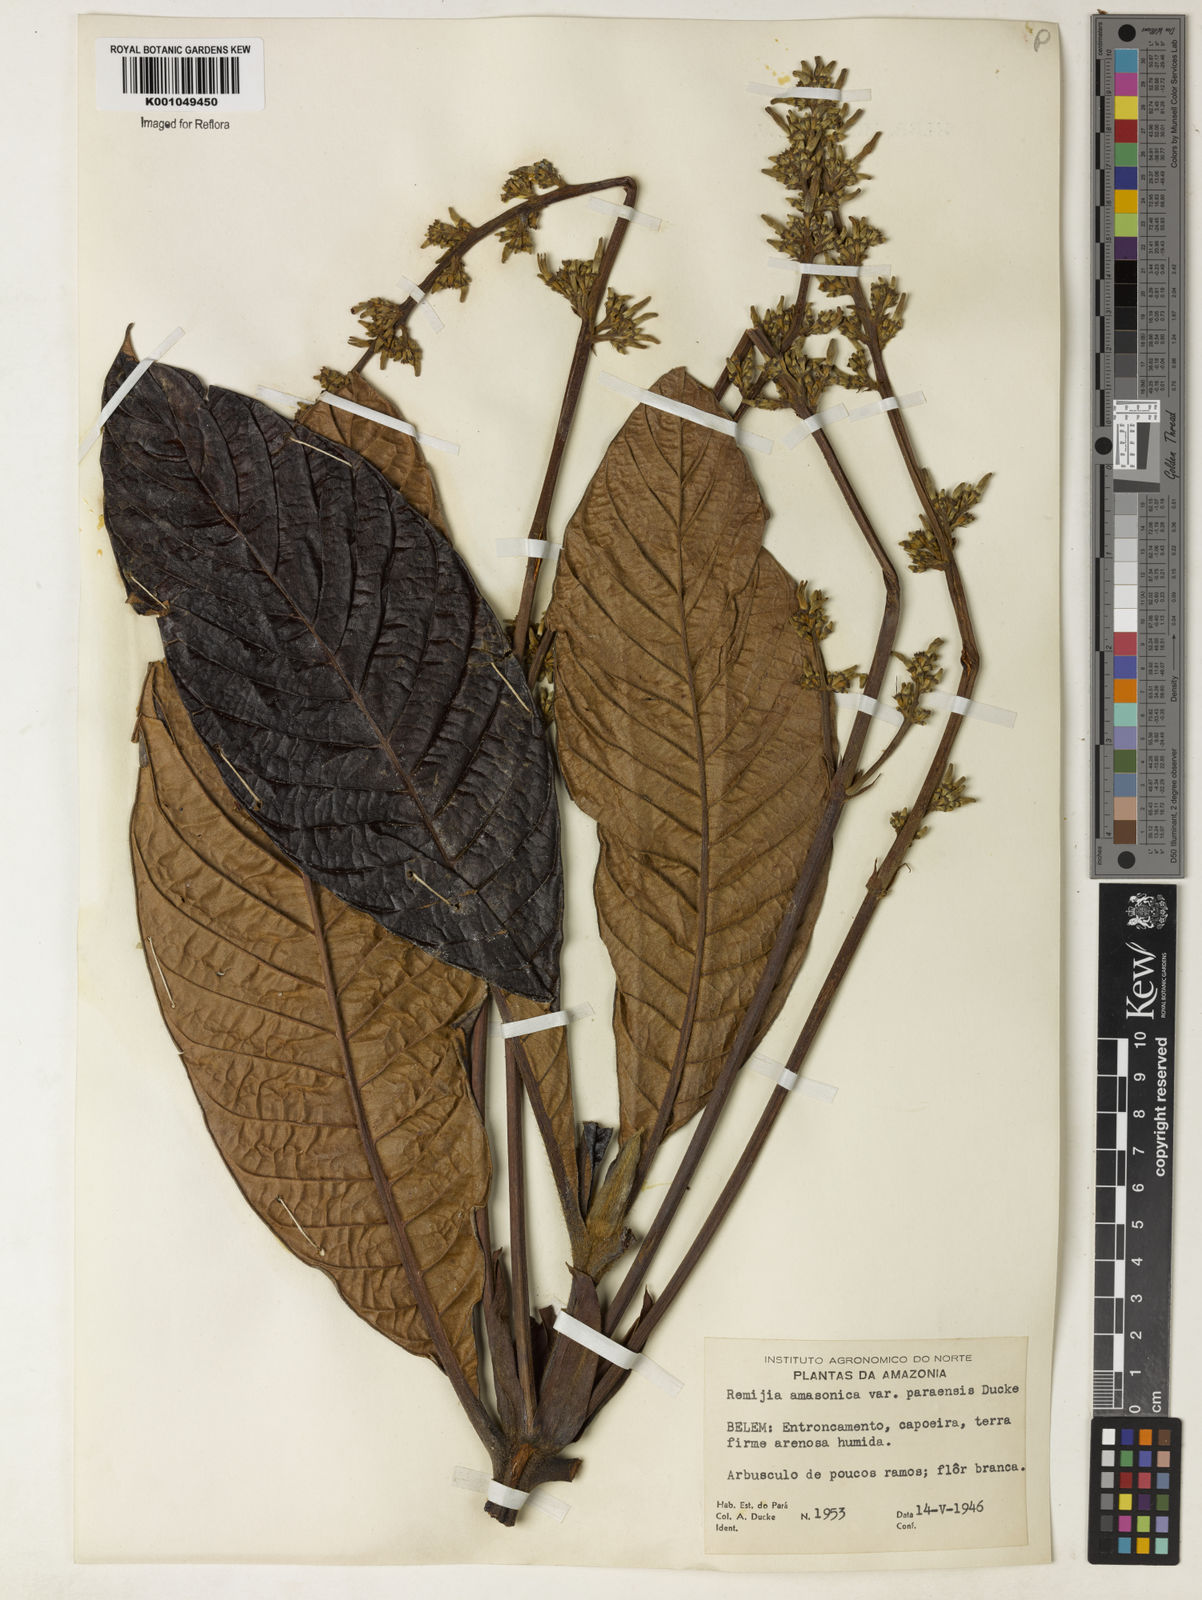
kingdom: Plantae
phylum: Tracheophyta
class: Magnoliopsida
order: Gentianales
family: Rubiaceae
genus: Remijia
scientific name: Remijia amazonica
